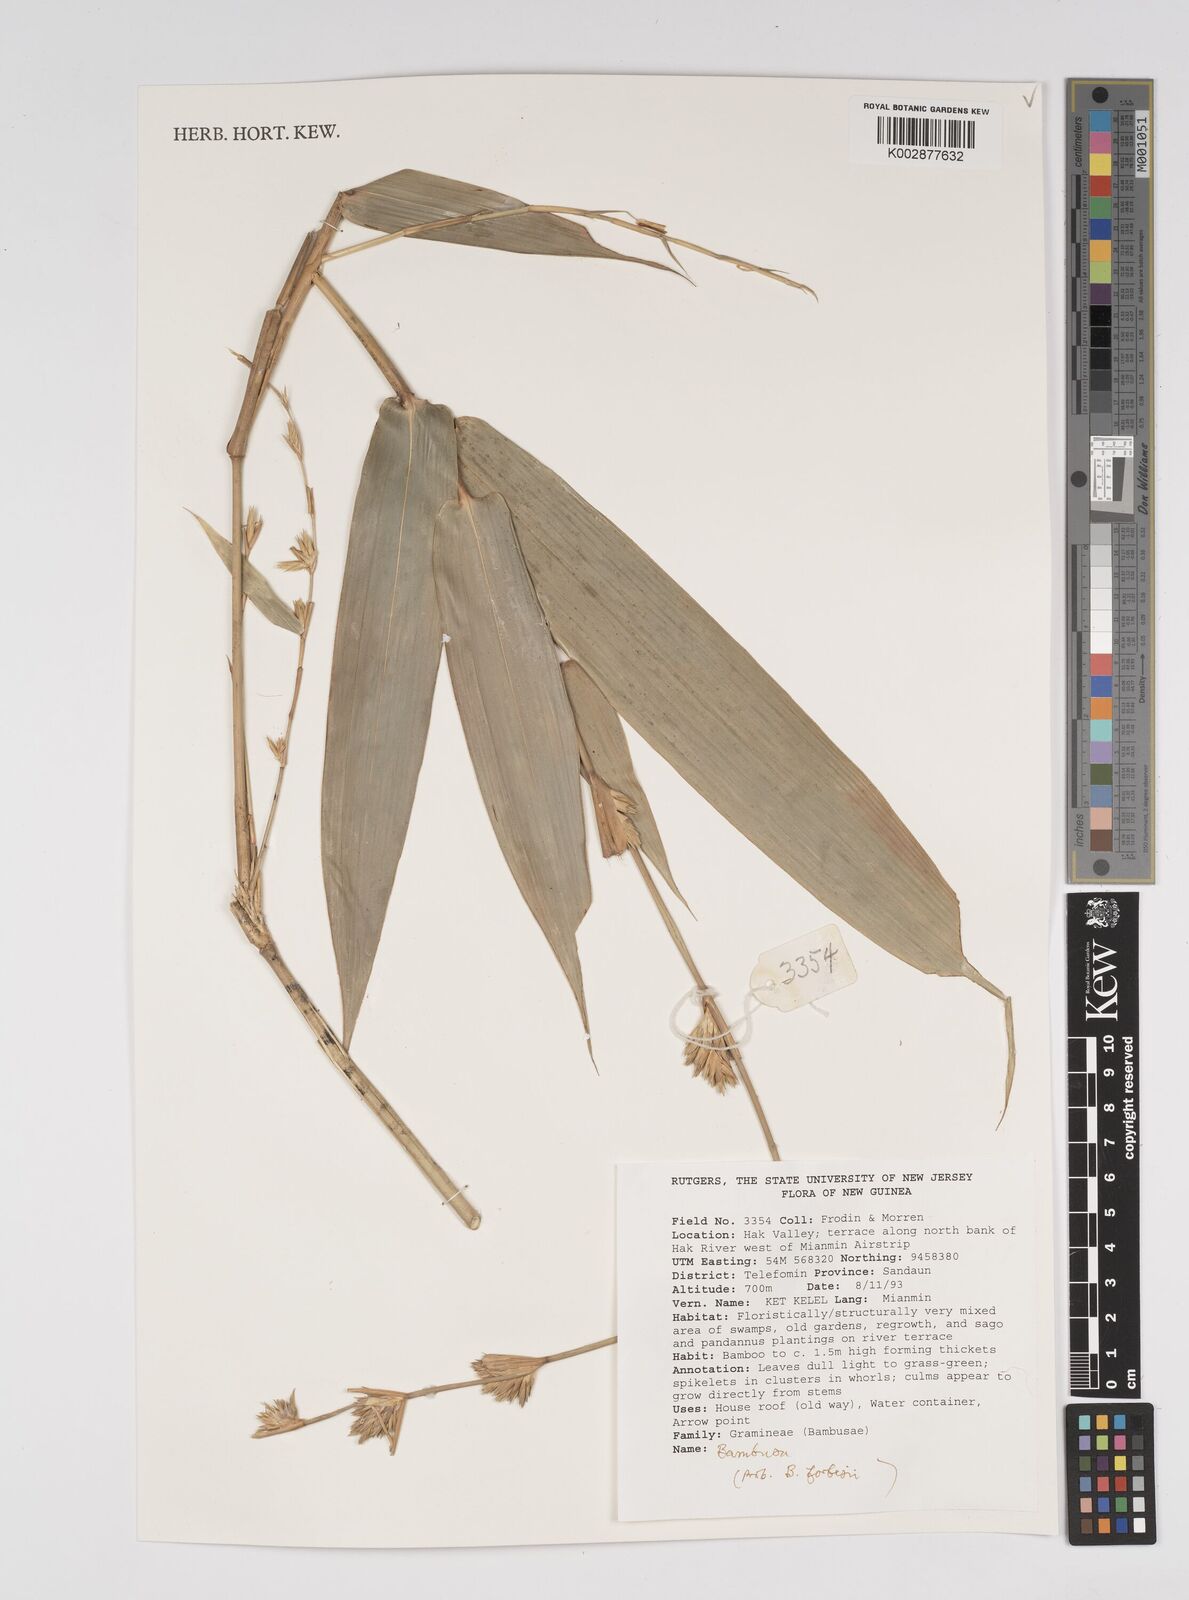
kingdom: Plantae
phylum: Tracheophyta
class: Liliopsida
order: Poales
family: Poaceae
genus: Bambusa
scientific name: Bambusa
